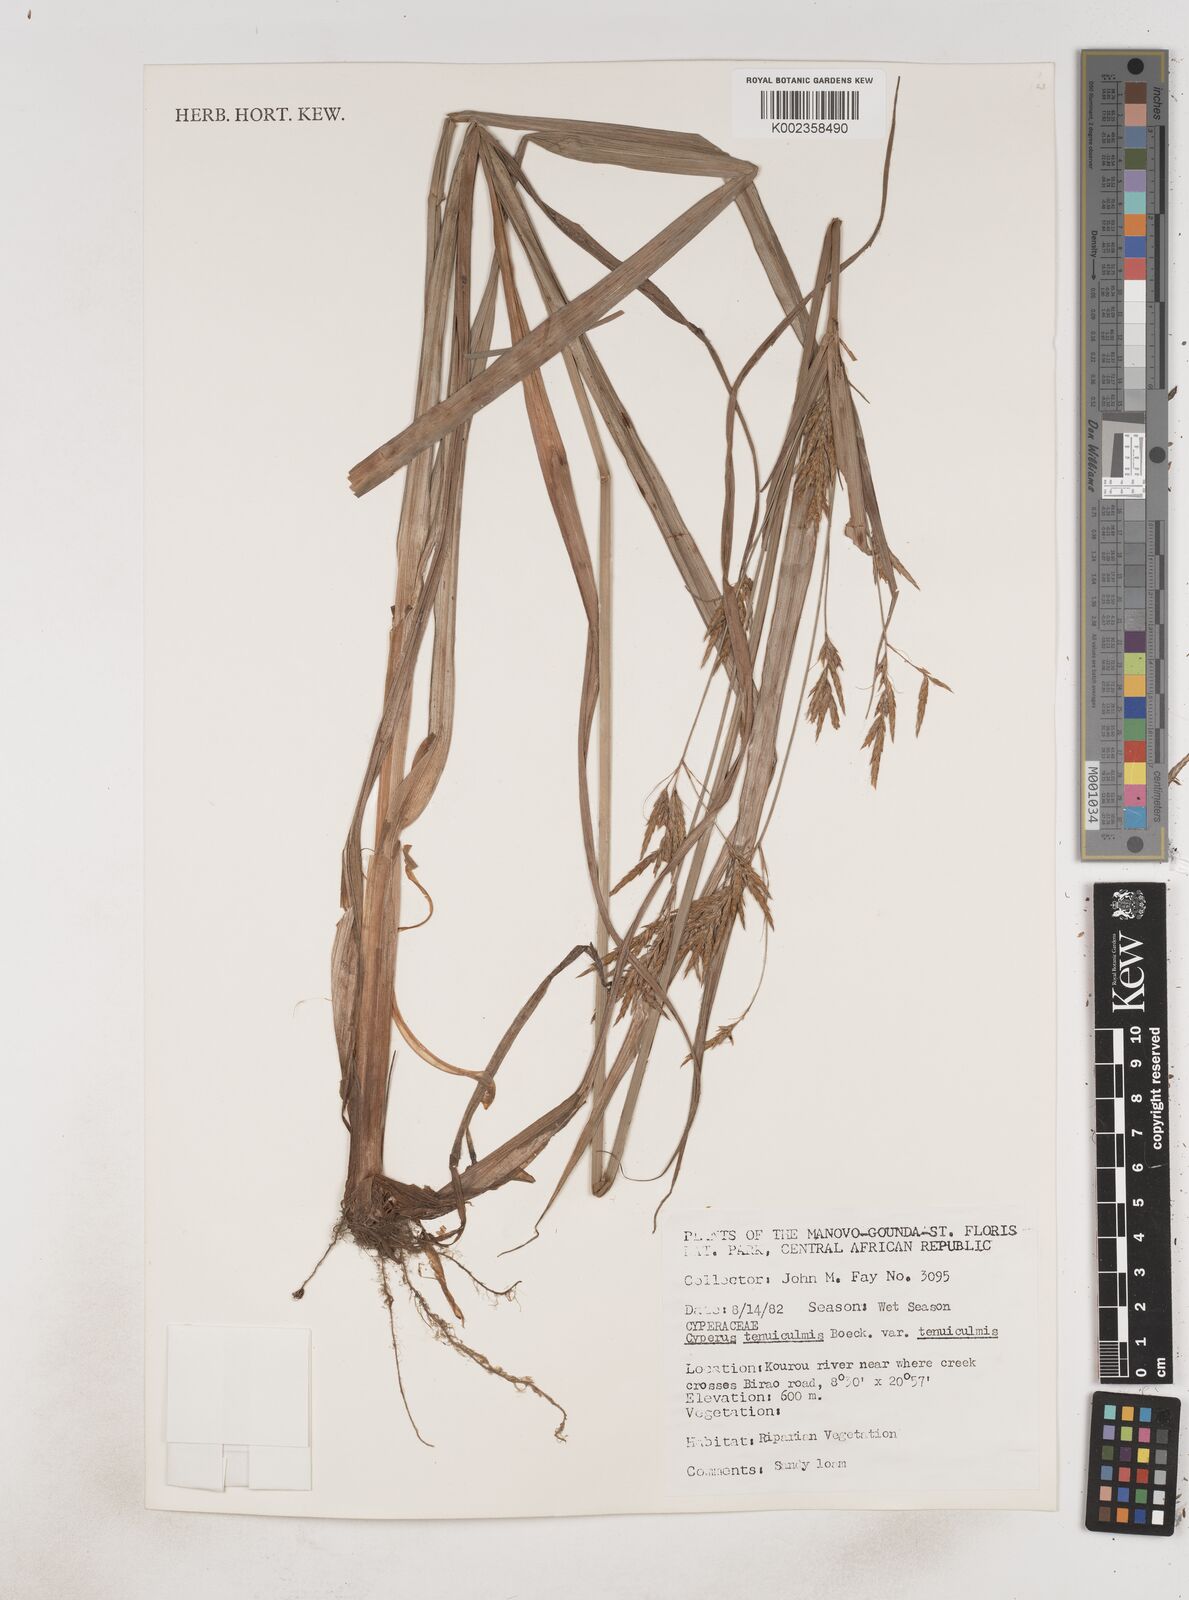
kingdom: Plantae
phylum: Tracheophyta
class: Liliopsida
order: Poales
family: Cyperaceae
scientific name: Cyperaceae
